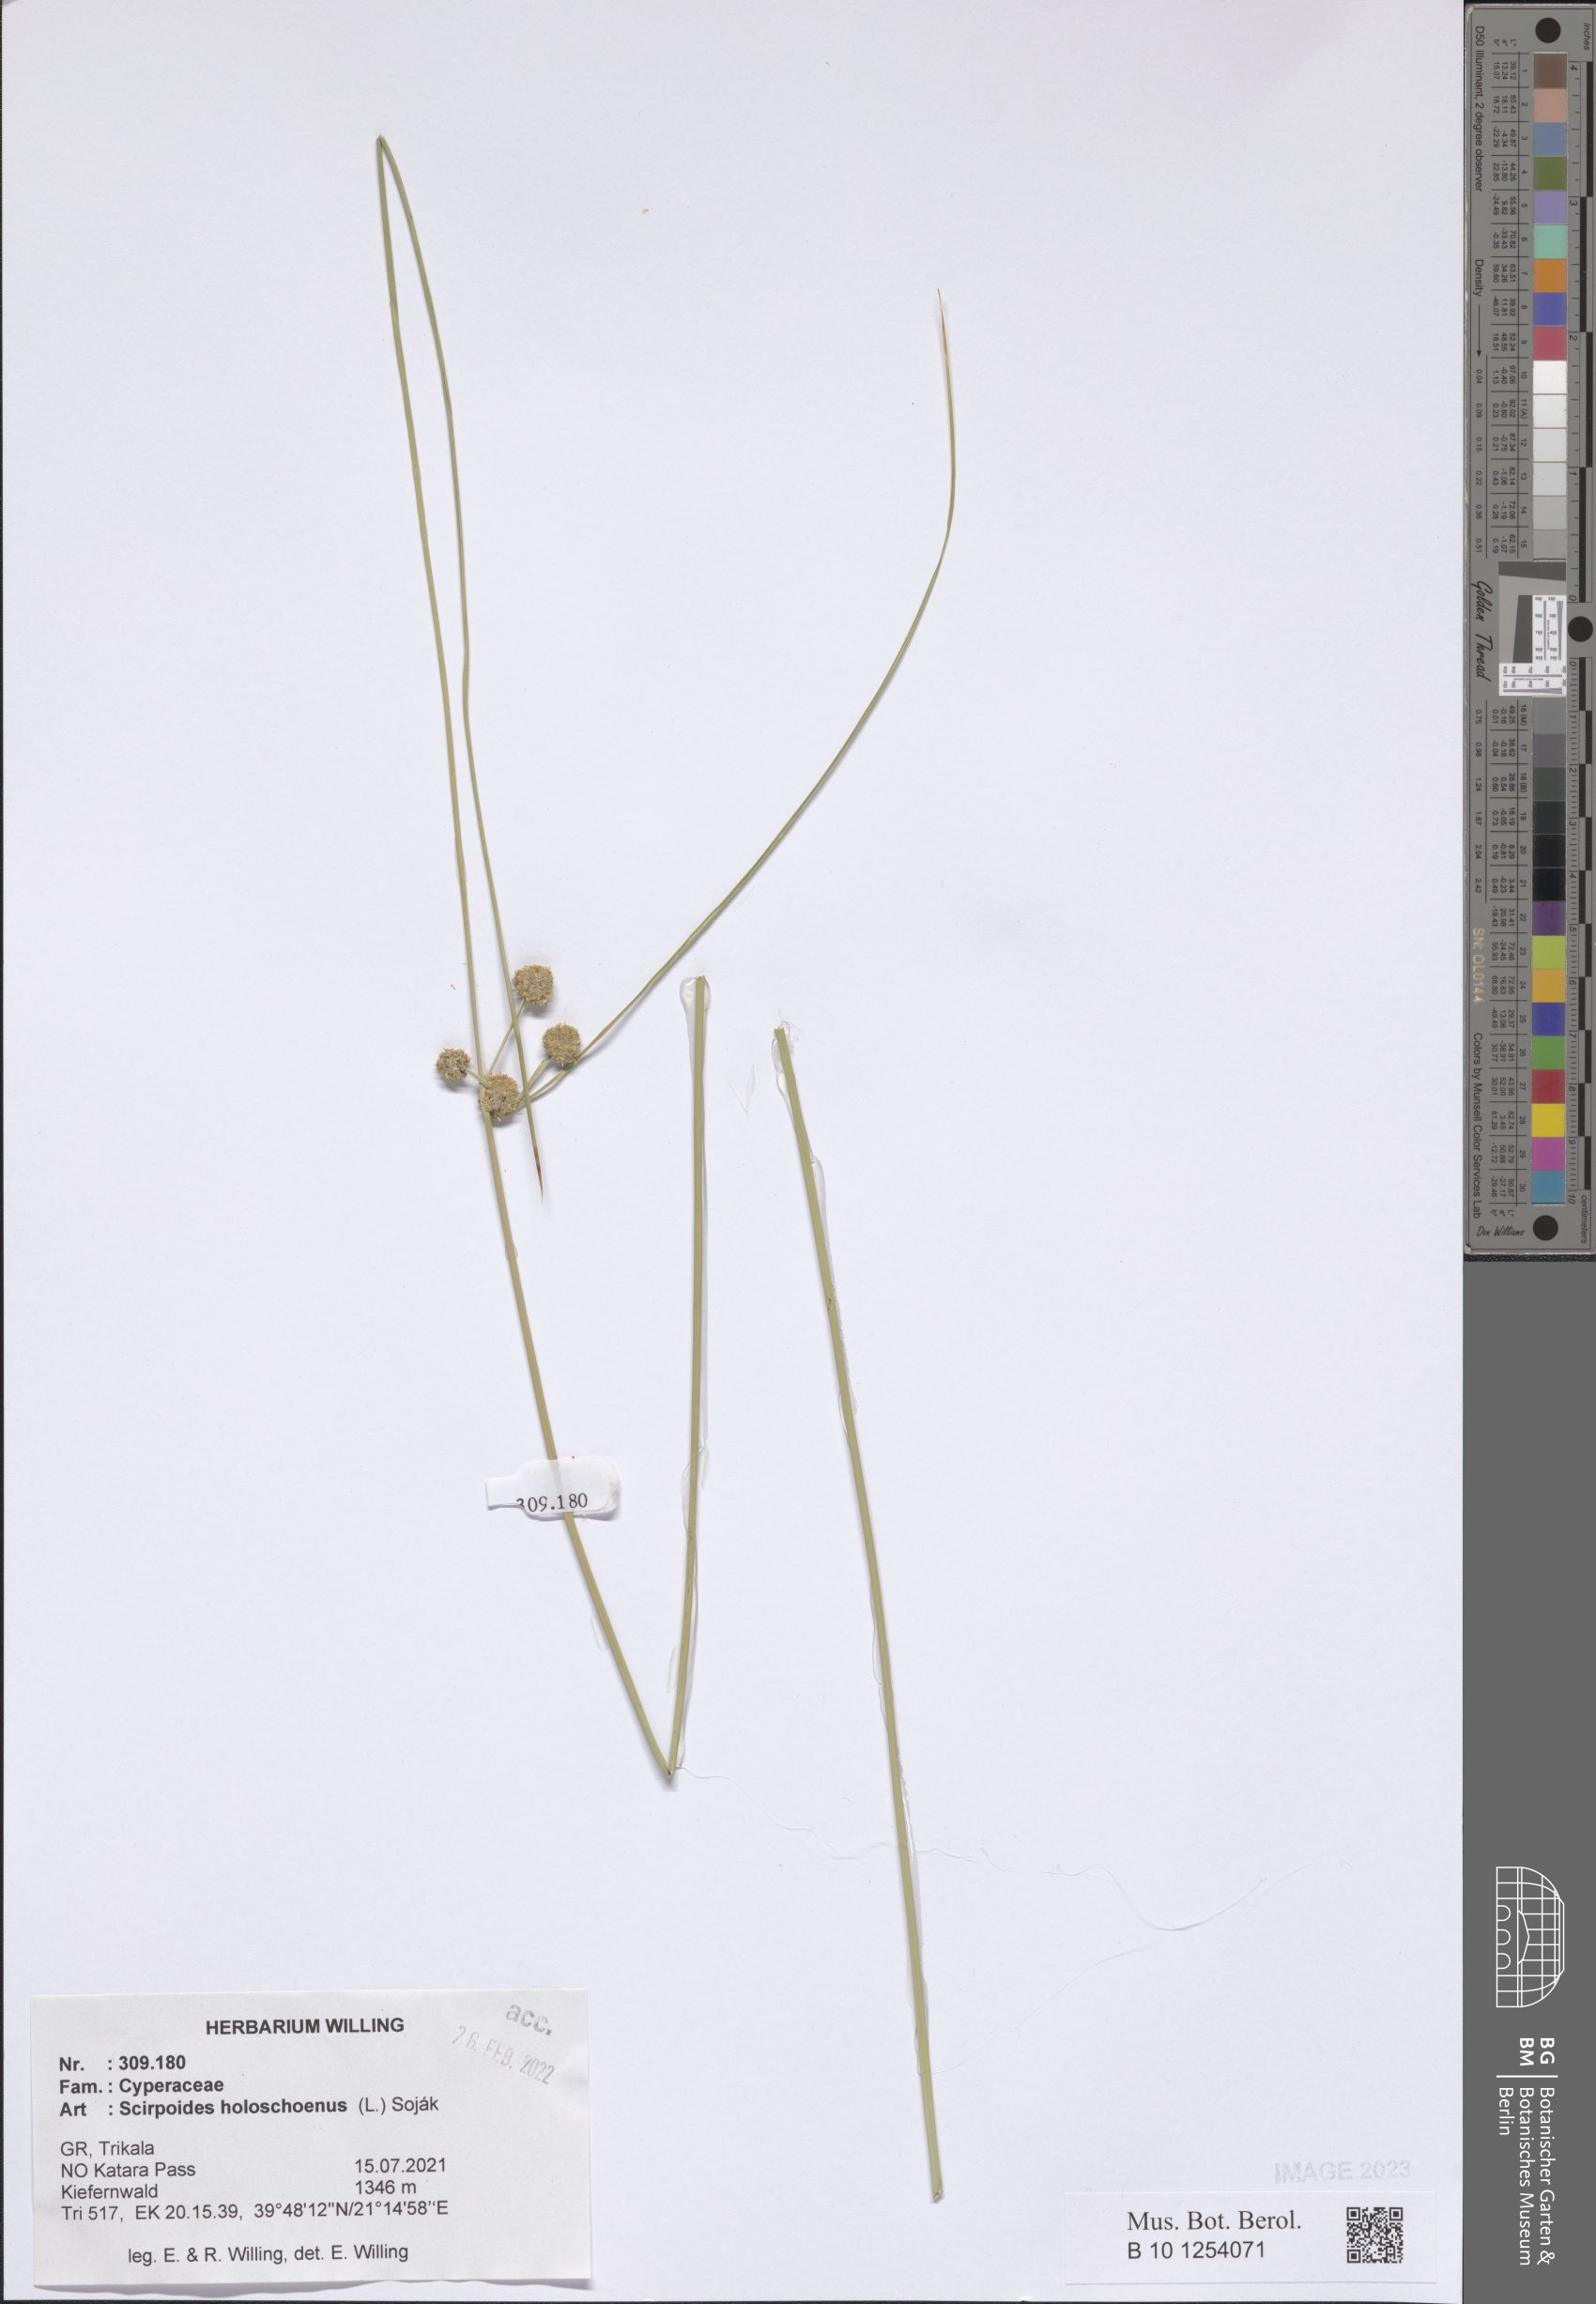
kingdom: Plantae
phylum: Tracheophyta
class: Liliopsida
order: Poales
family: Cyperaceae
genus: Scirpoides
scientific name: Scirpoides
